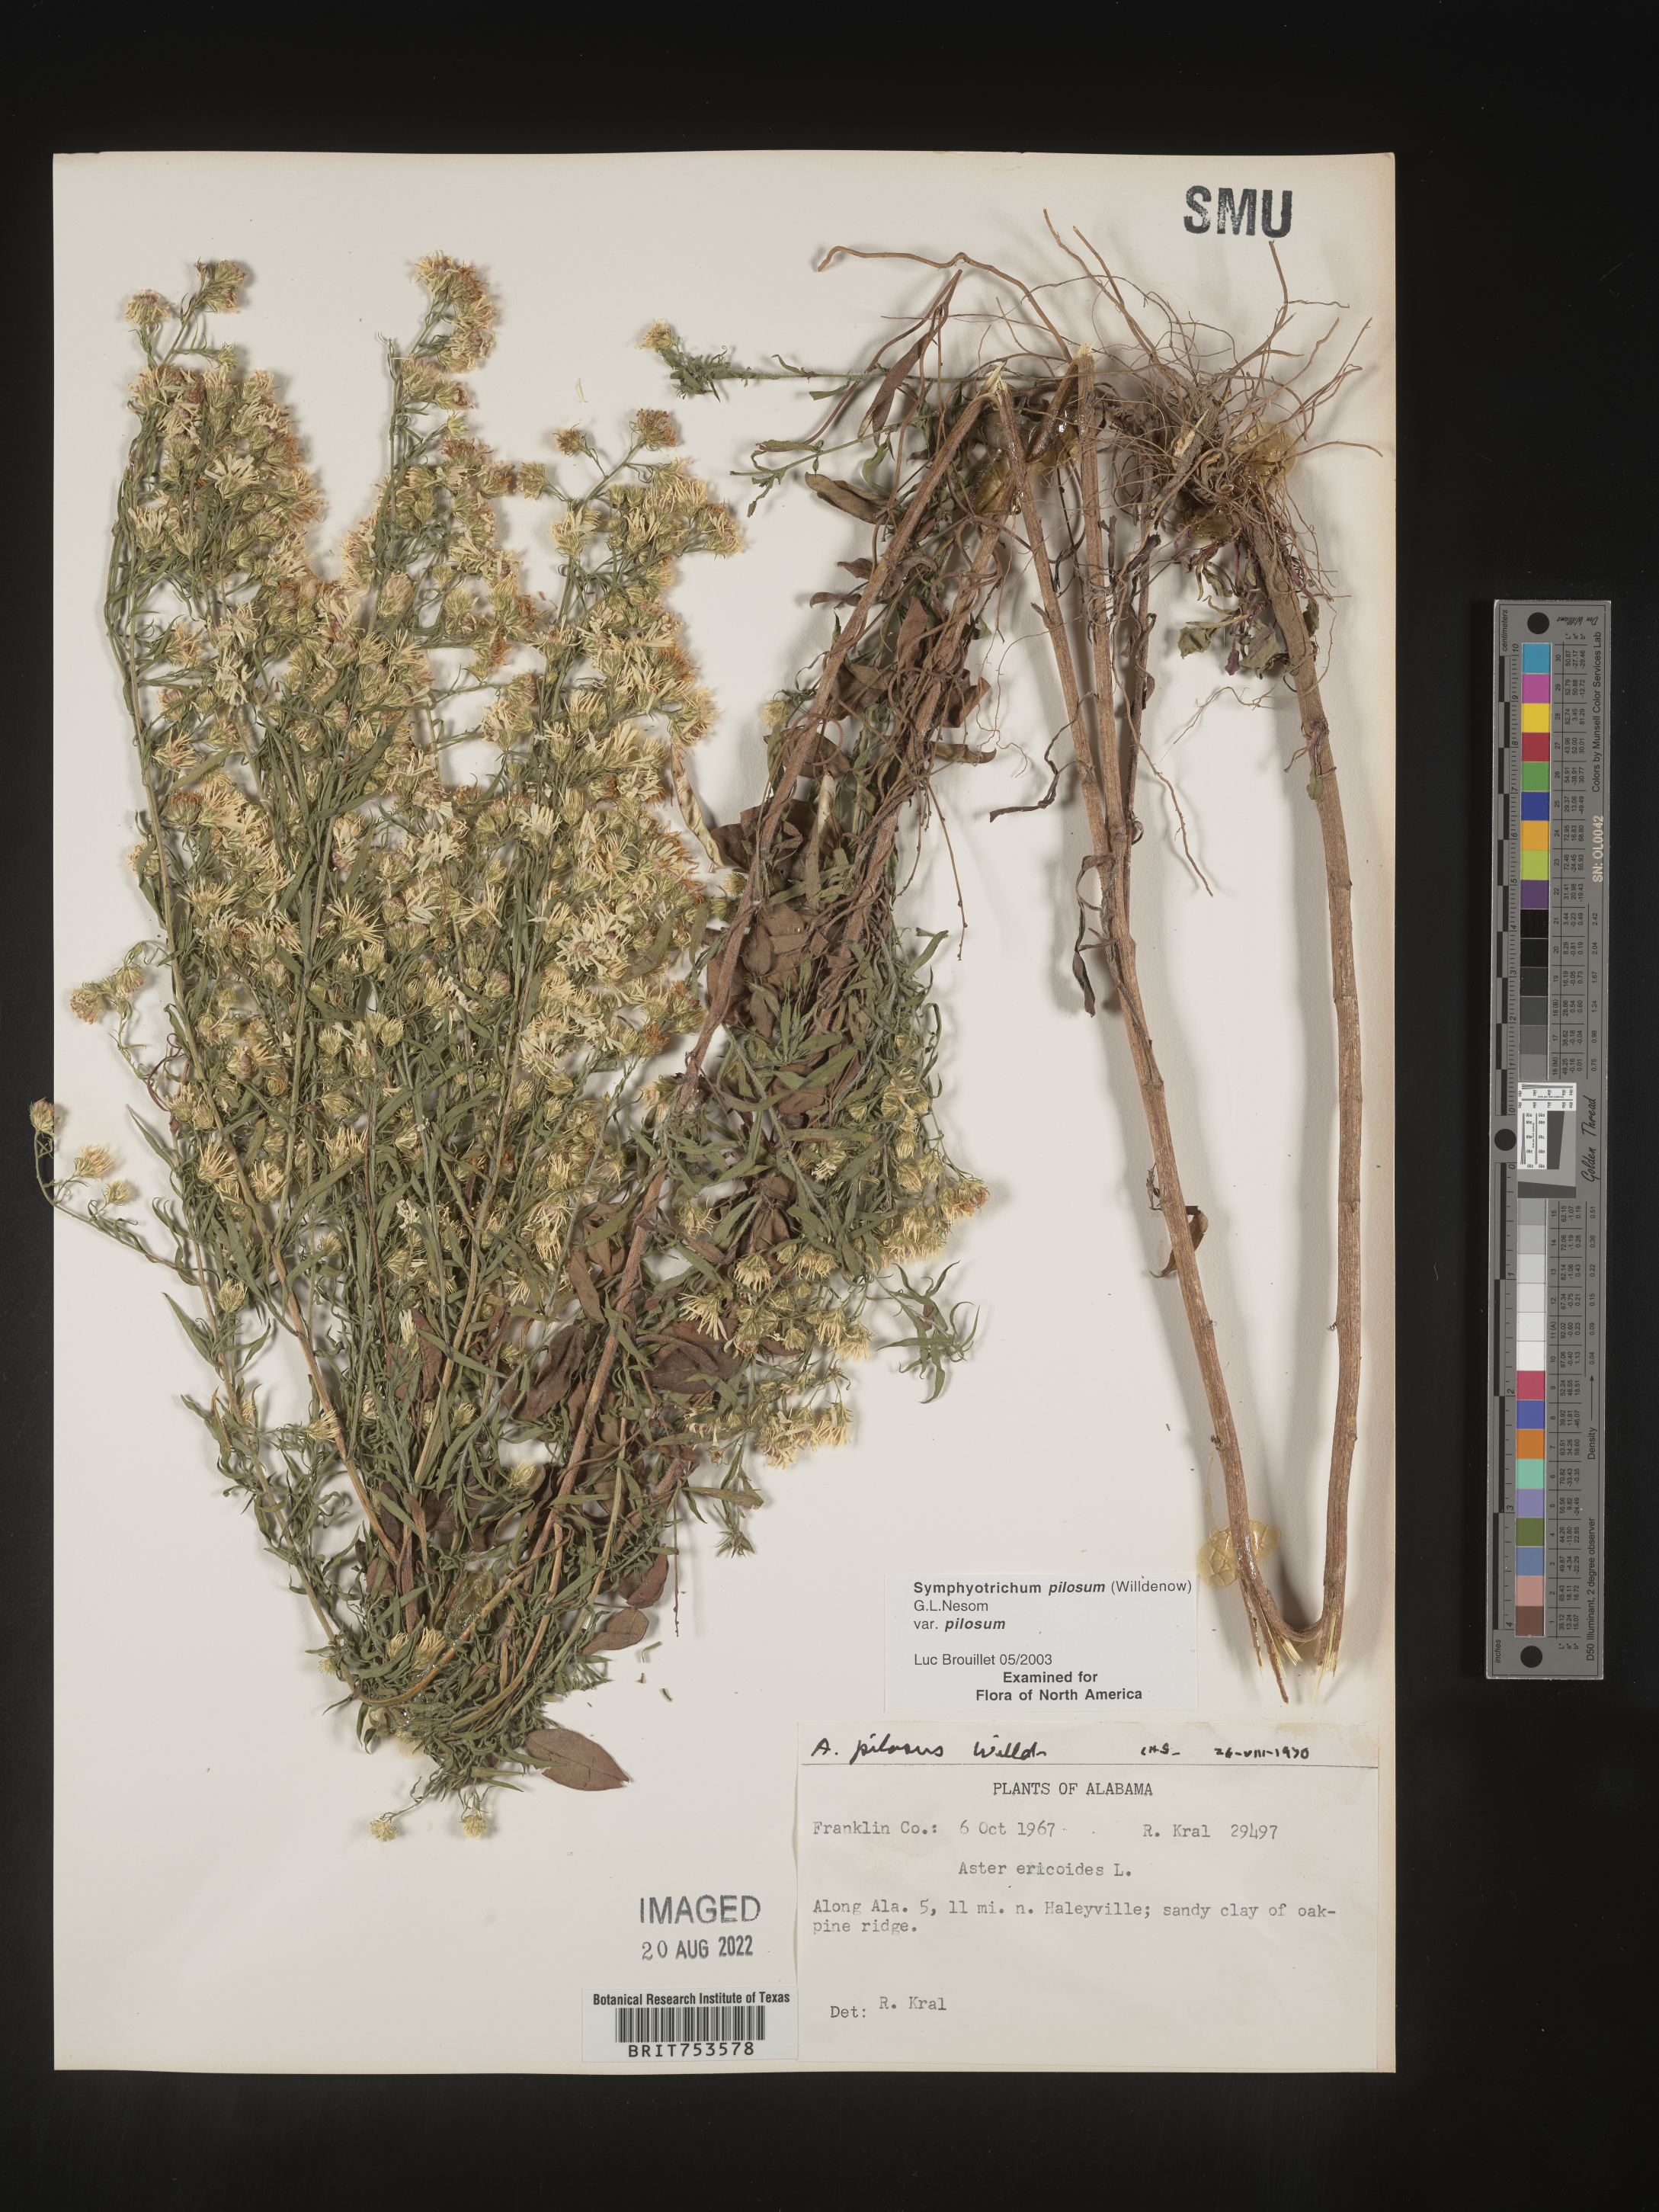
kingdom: Plantae
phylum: Tracheophyta
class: Magnoliopsida
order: Asterales
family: Asteraceae
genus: Symphyotrichum
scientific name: Symphyotrichum pilosum
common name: Awl aster
